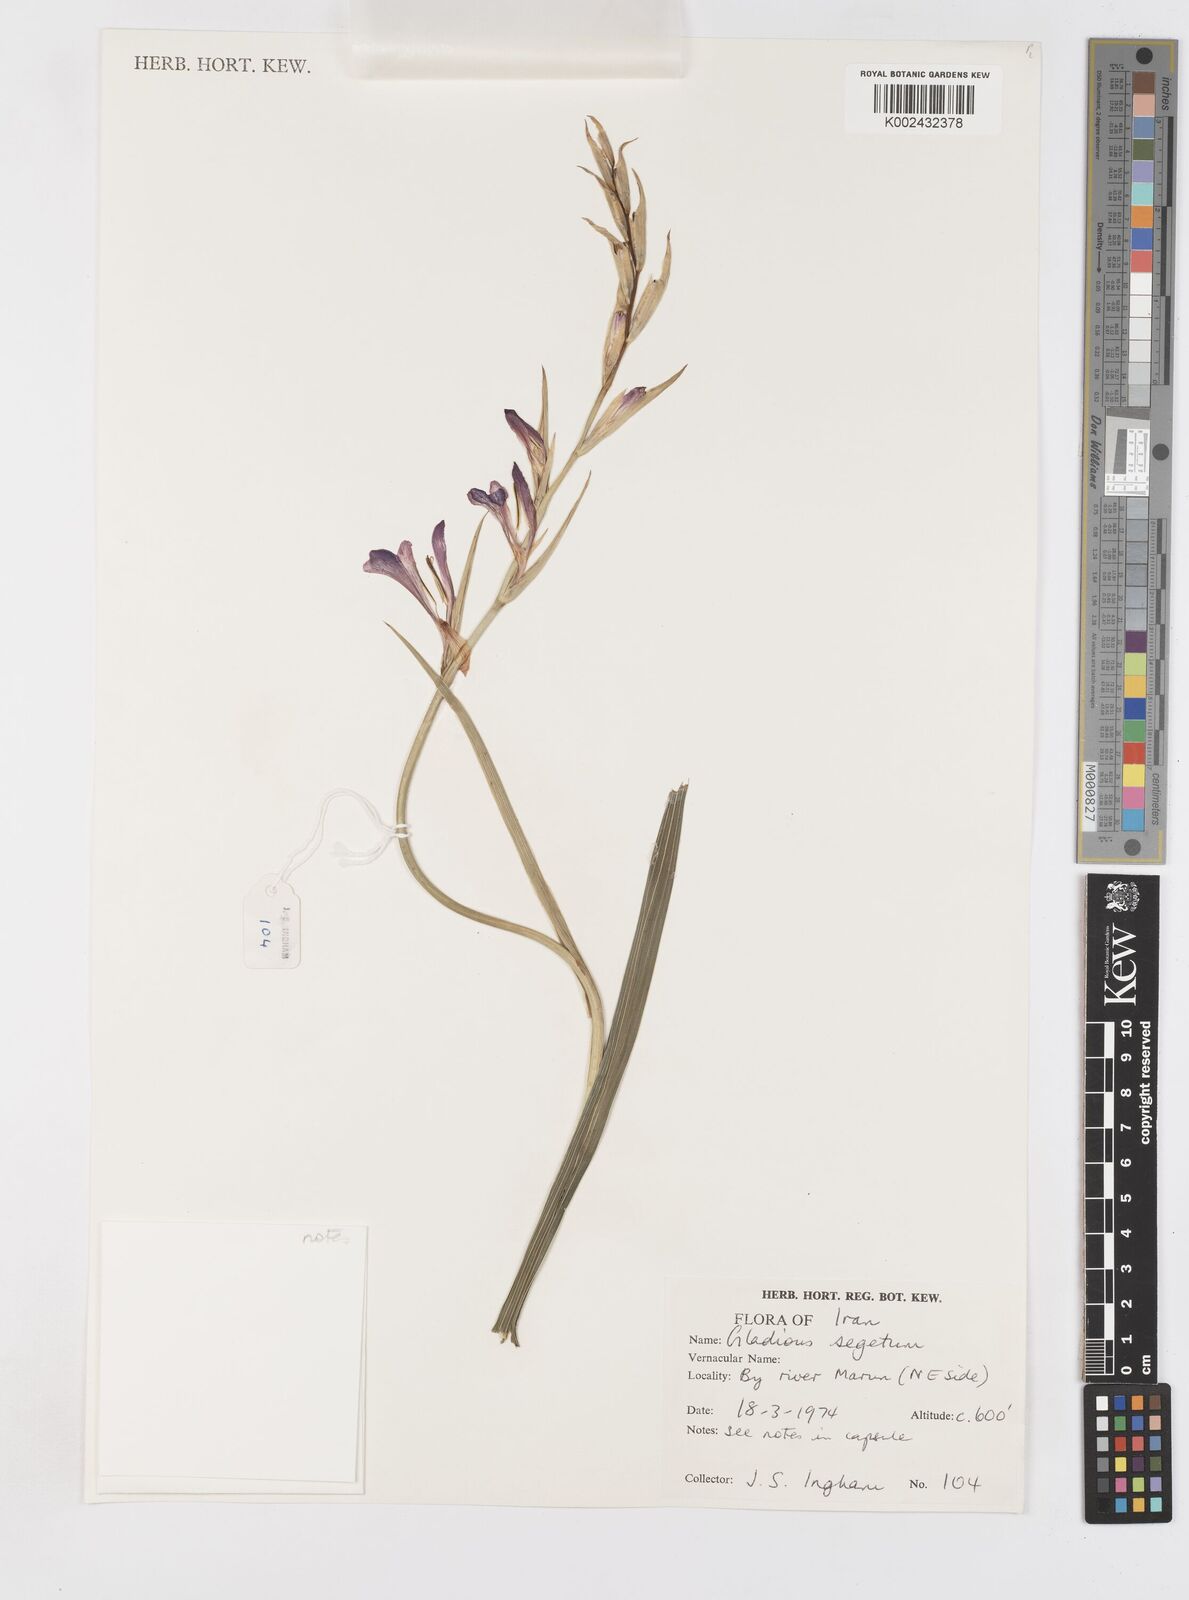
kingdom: Plantae
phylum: Tracheophyta
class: Liliopsida
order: Asparagales
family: Iridaceae
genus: Gladiolus
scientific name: Gladiolus italicus
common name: Field gladiolus
